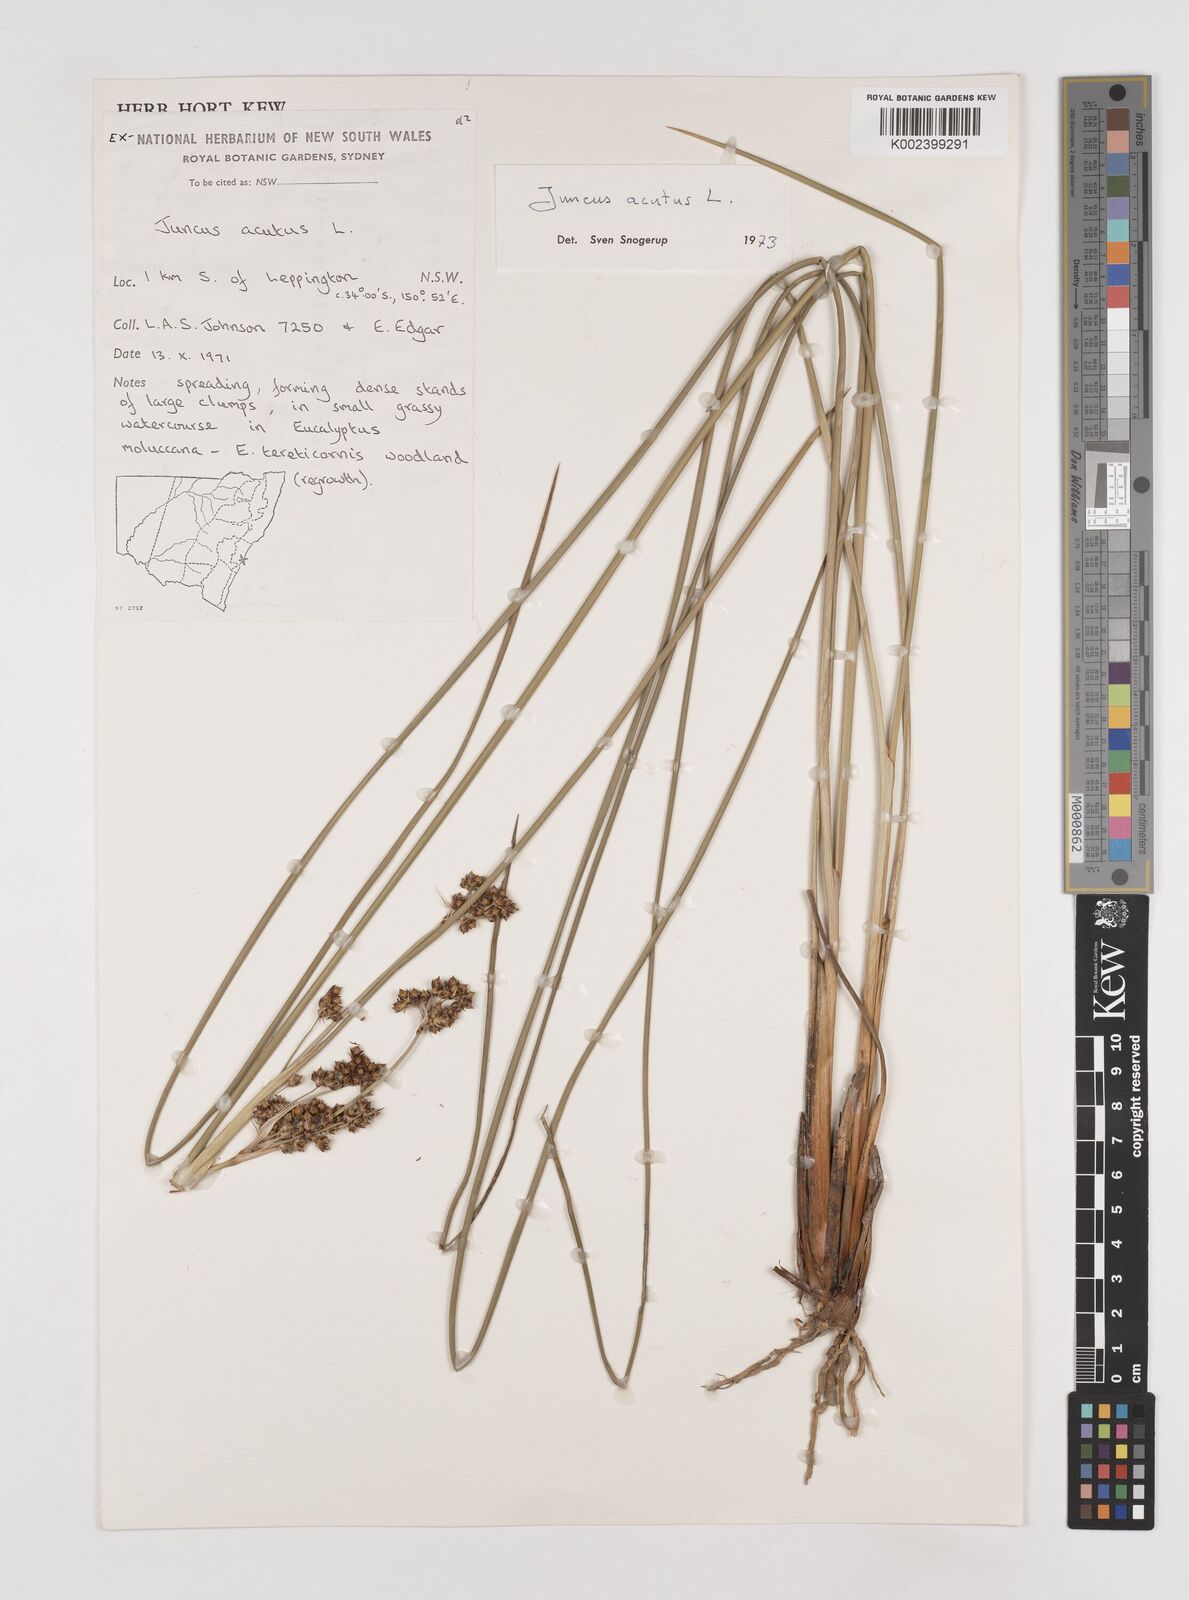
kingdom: Plantae
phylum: Tracheophyta
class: Liliopsida
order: Poales
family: Juncaceae
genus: Juncus
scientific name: Juncus acutus
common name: Sharp rush
